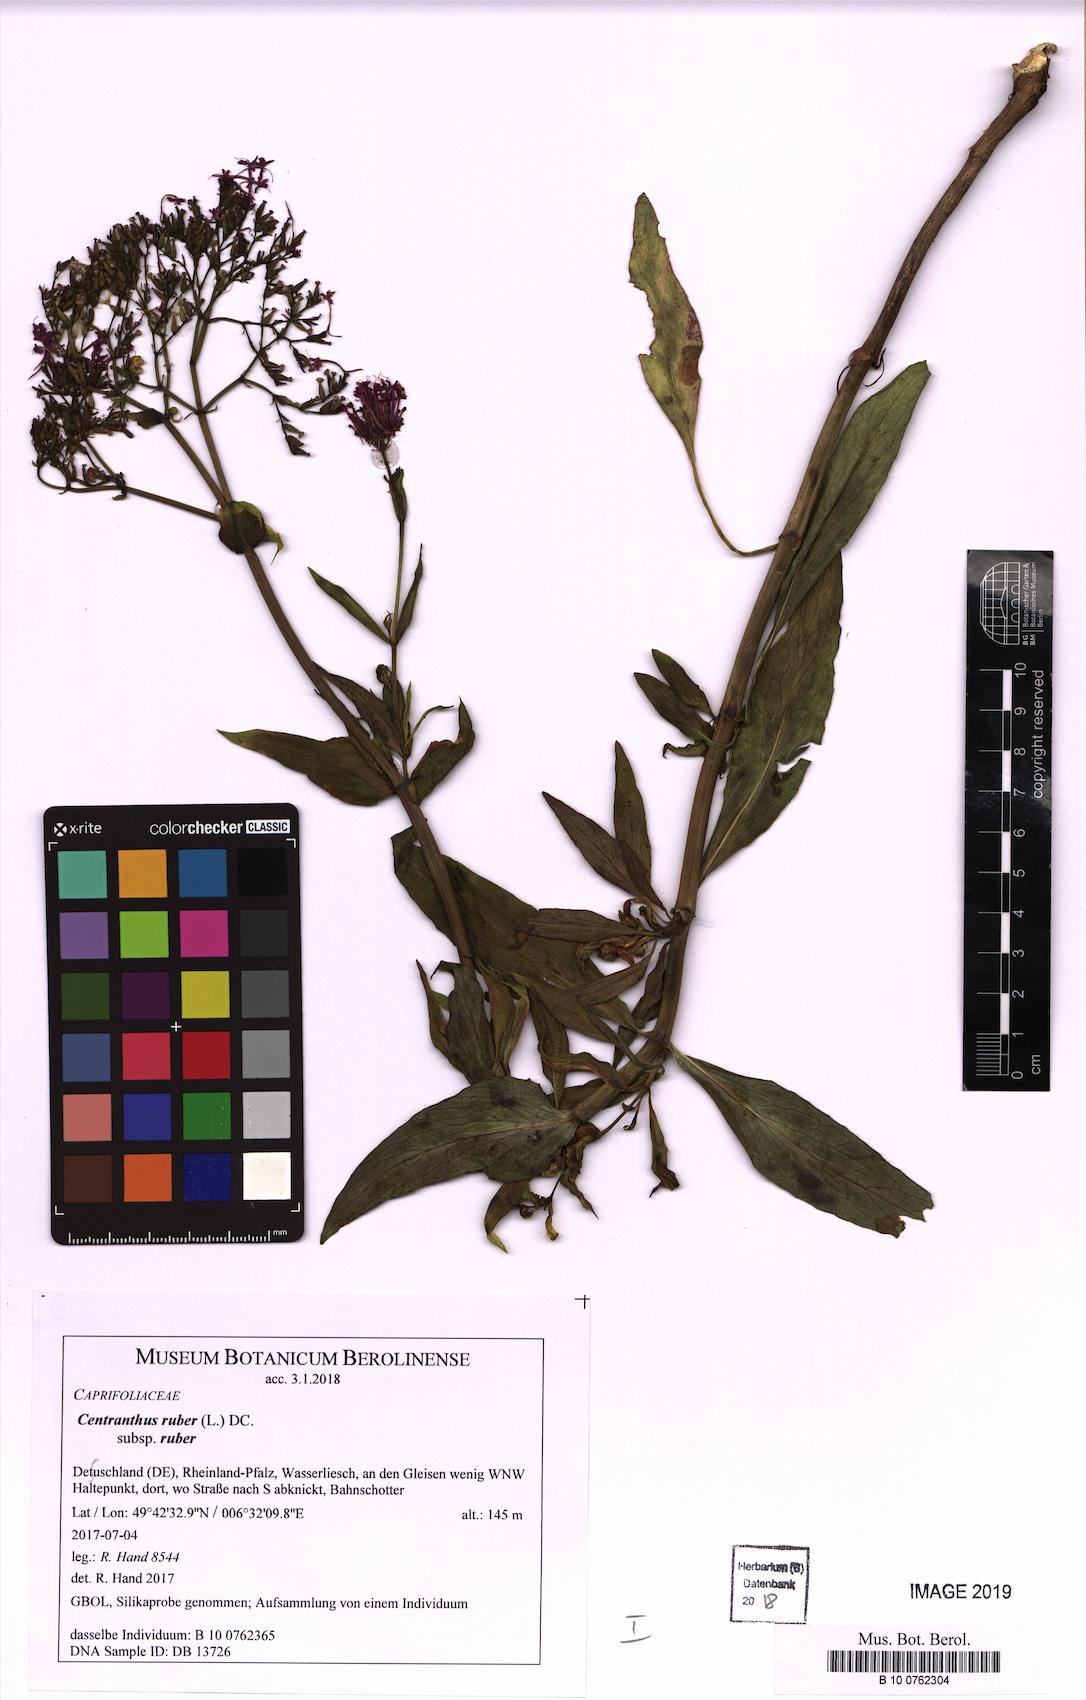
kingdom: Plantae
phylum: Tracheophyta
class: Magnoliopsida
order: Dipsacales
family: Caprifoliaceae
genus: Centranthus
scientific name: Centranthus ruber
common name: Red valerian
